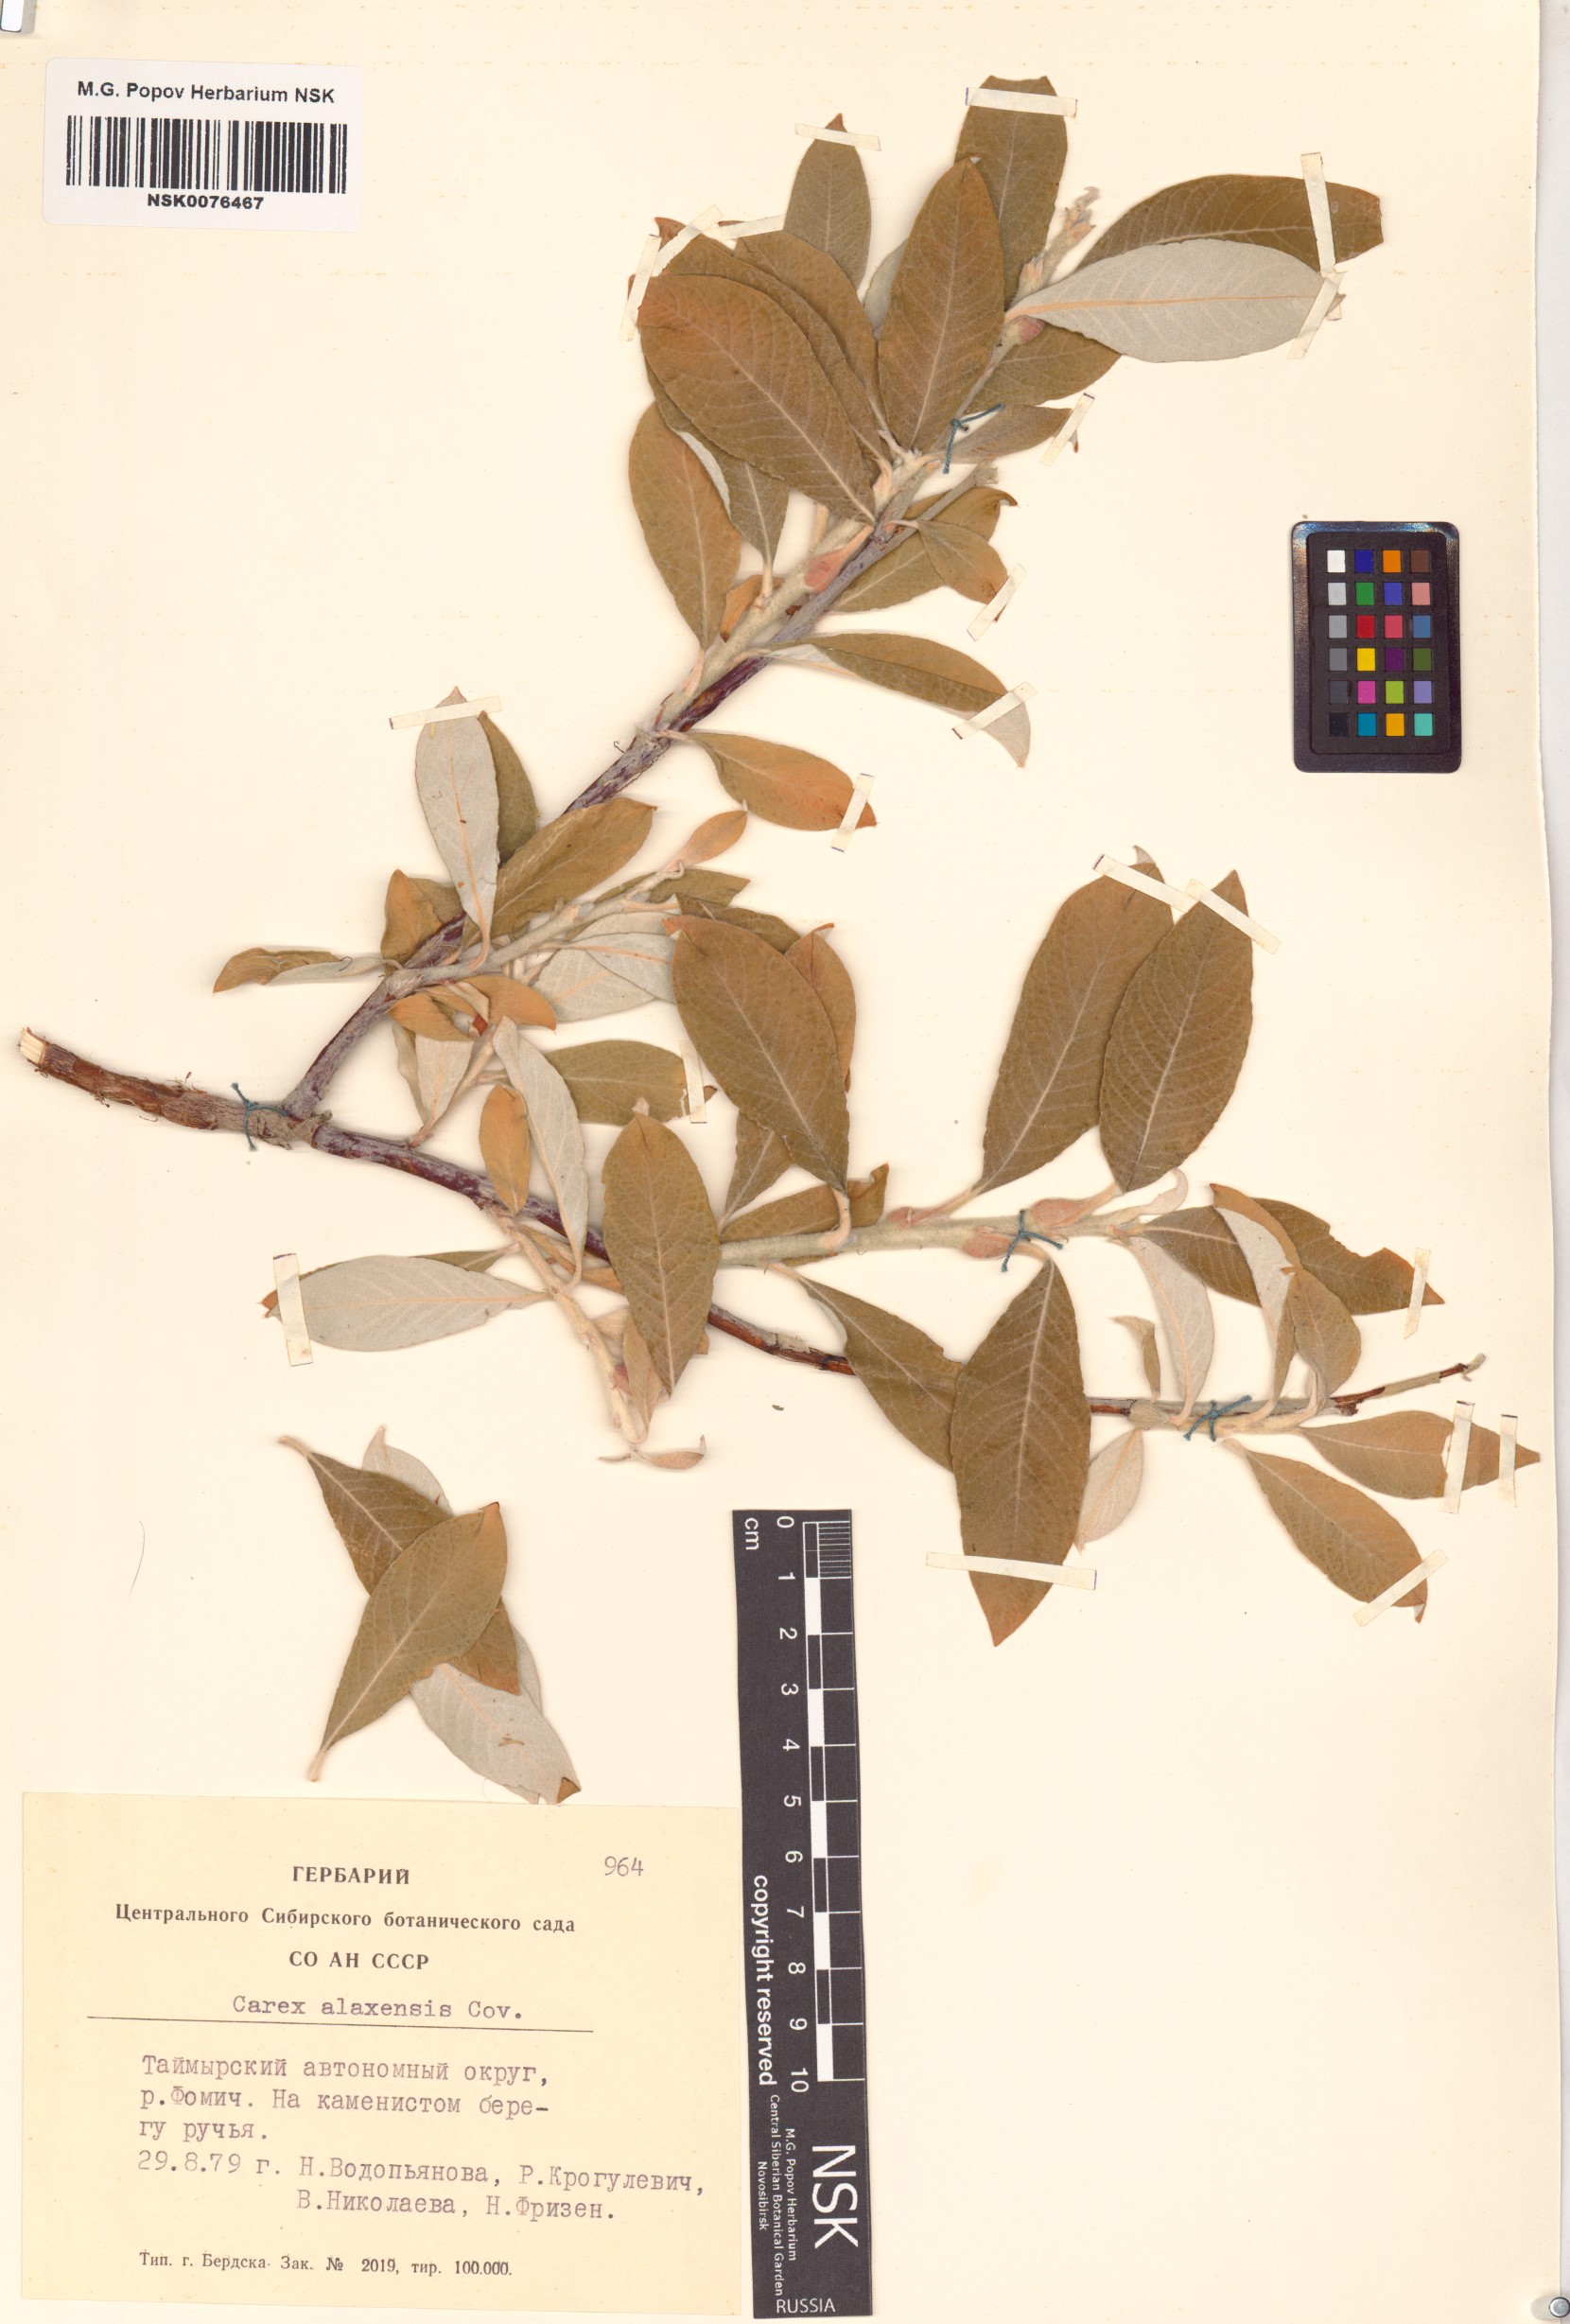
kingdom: Plantae
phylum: Tracheophyta
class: Magnoliopsida
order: Malpighiales
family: Salicaceae
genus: Salix
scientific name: Salix alaxensis
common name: Feltleaf willow
